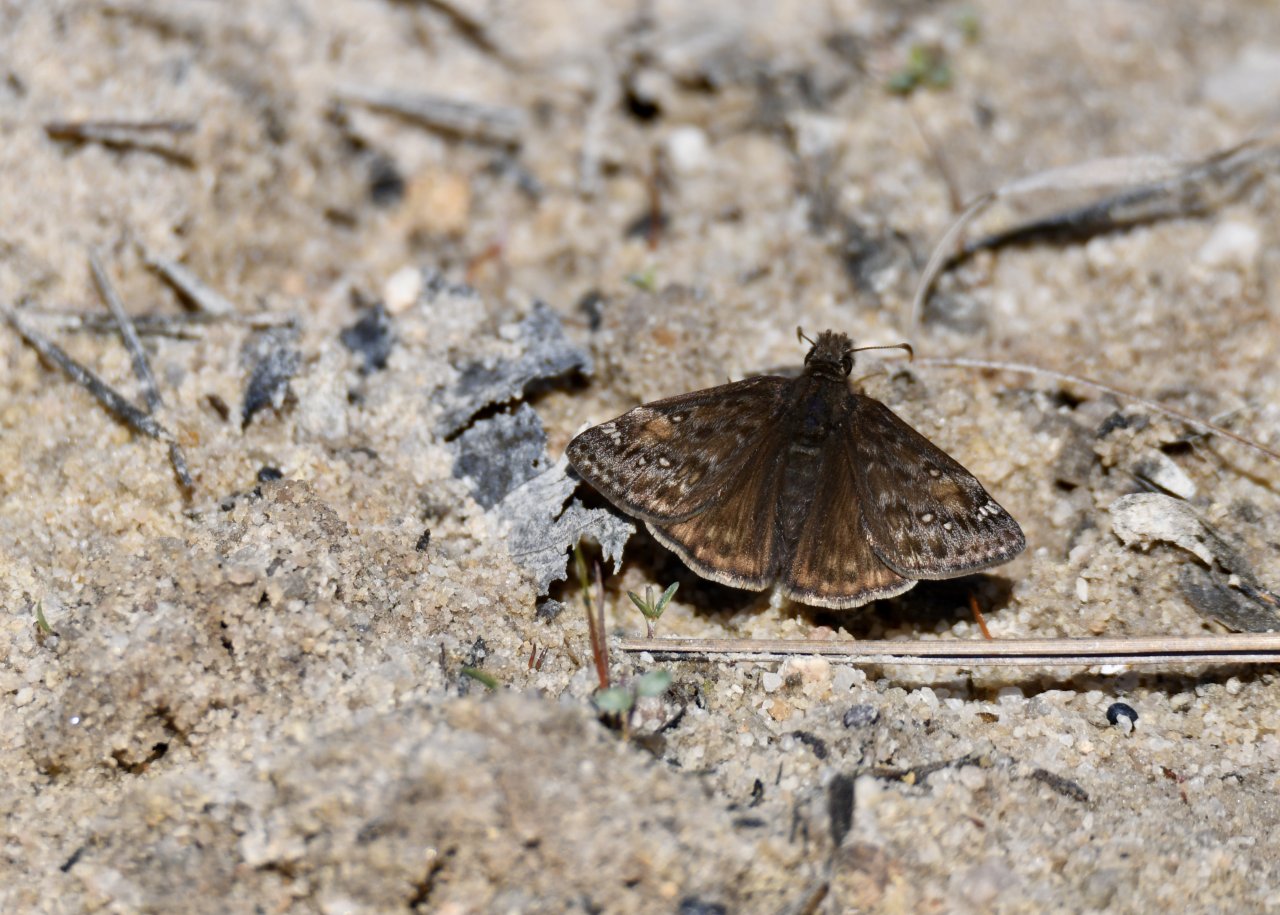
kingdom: Animalia
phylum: Arthropoda
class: Insecta
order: Lepidoptera
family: Hesperiidae
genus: Gesta
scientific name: Gesta
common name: Juvenal's Duskywing
